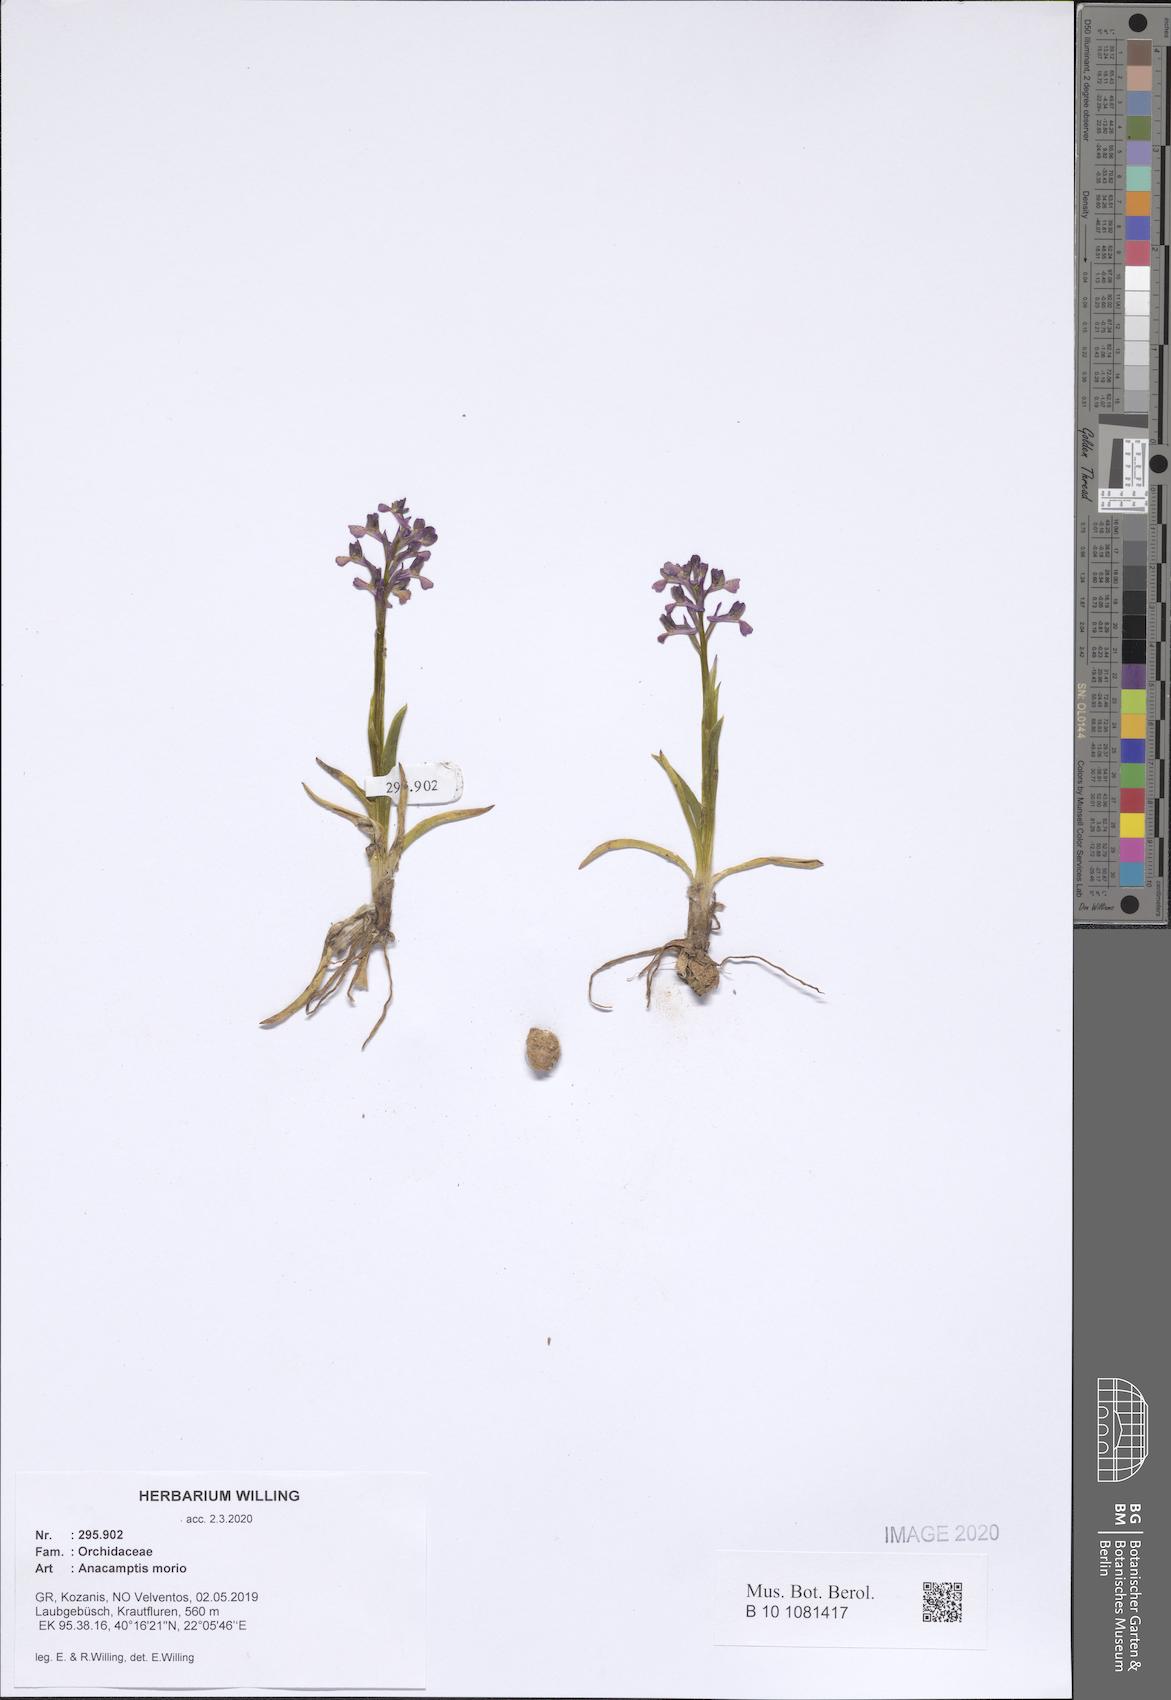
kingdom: Plantae
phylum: Tracheophyta
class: Liliopsida
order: Asparagales
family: Orchidaceae
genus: Anacamptis
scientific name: Anacamptis morio
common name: Green-winged orchid
